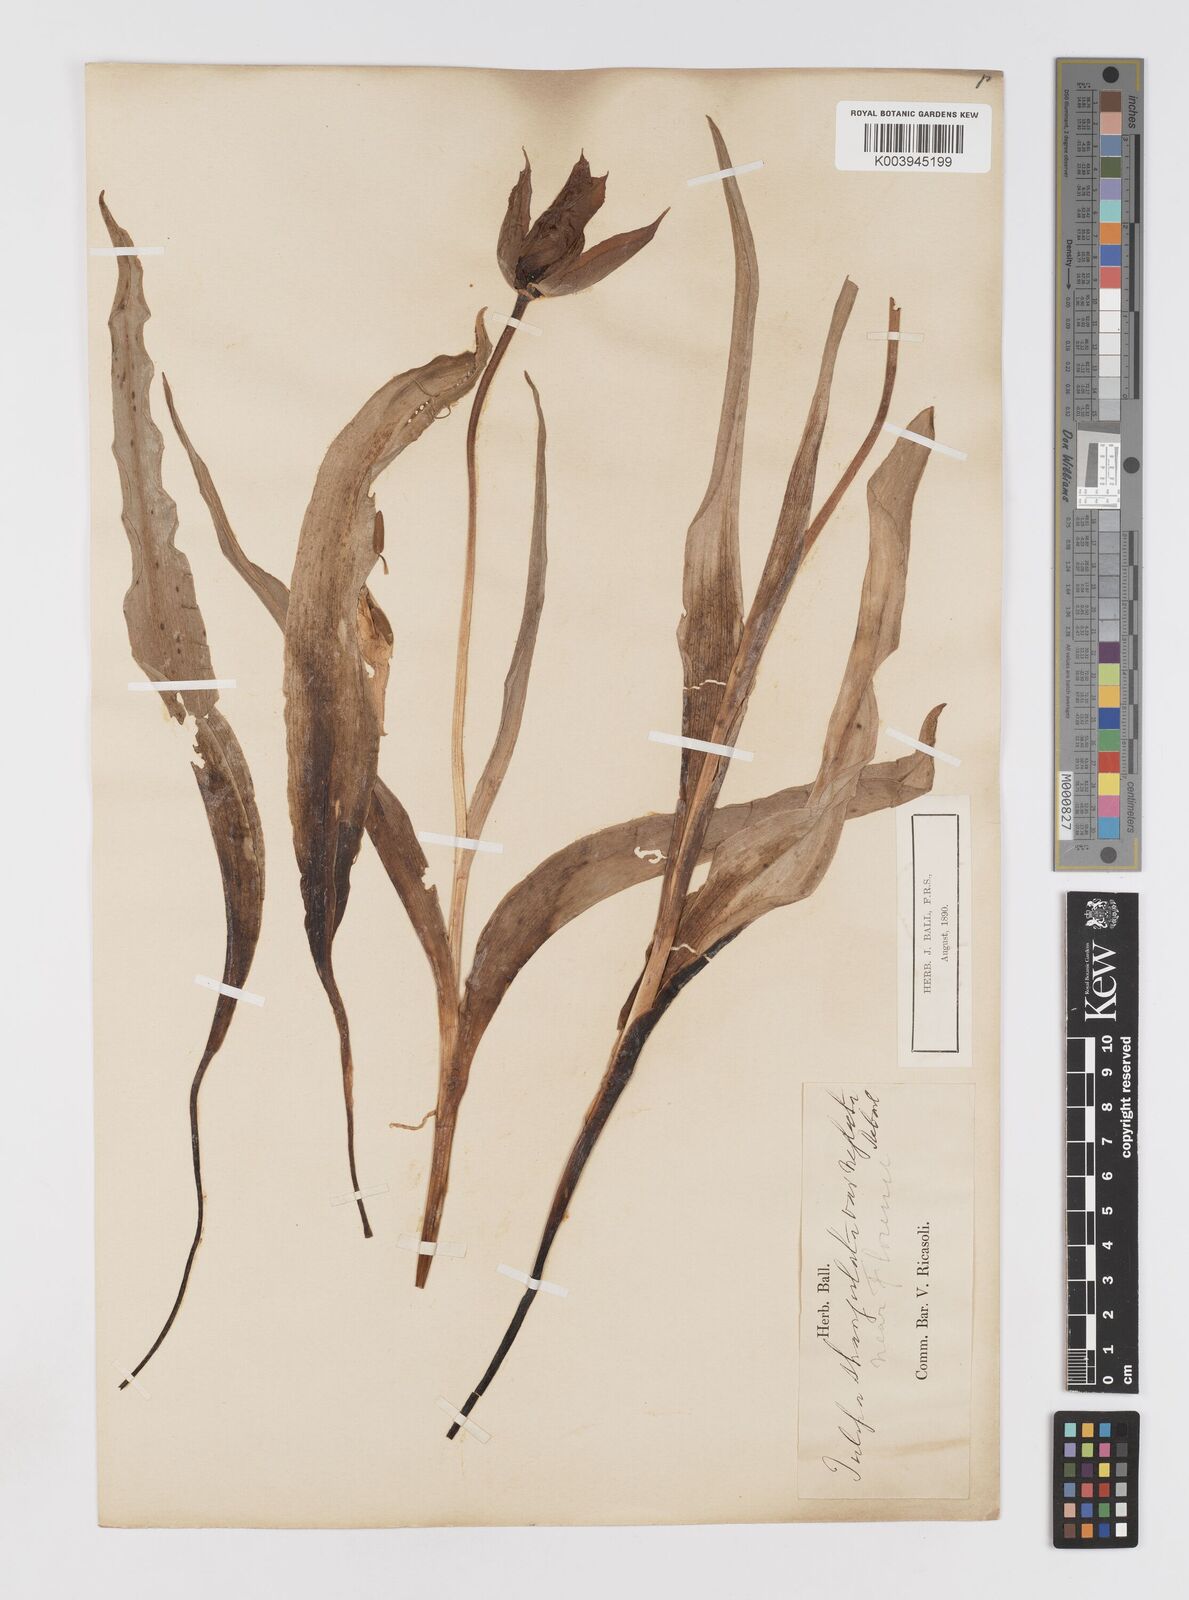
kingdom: Plantae
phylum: Tracheophyta
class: Liliopsida
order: Liliales
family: Liliaceae
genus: Tulipa
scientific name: Tulipa
